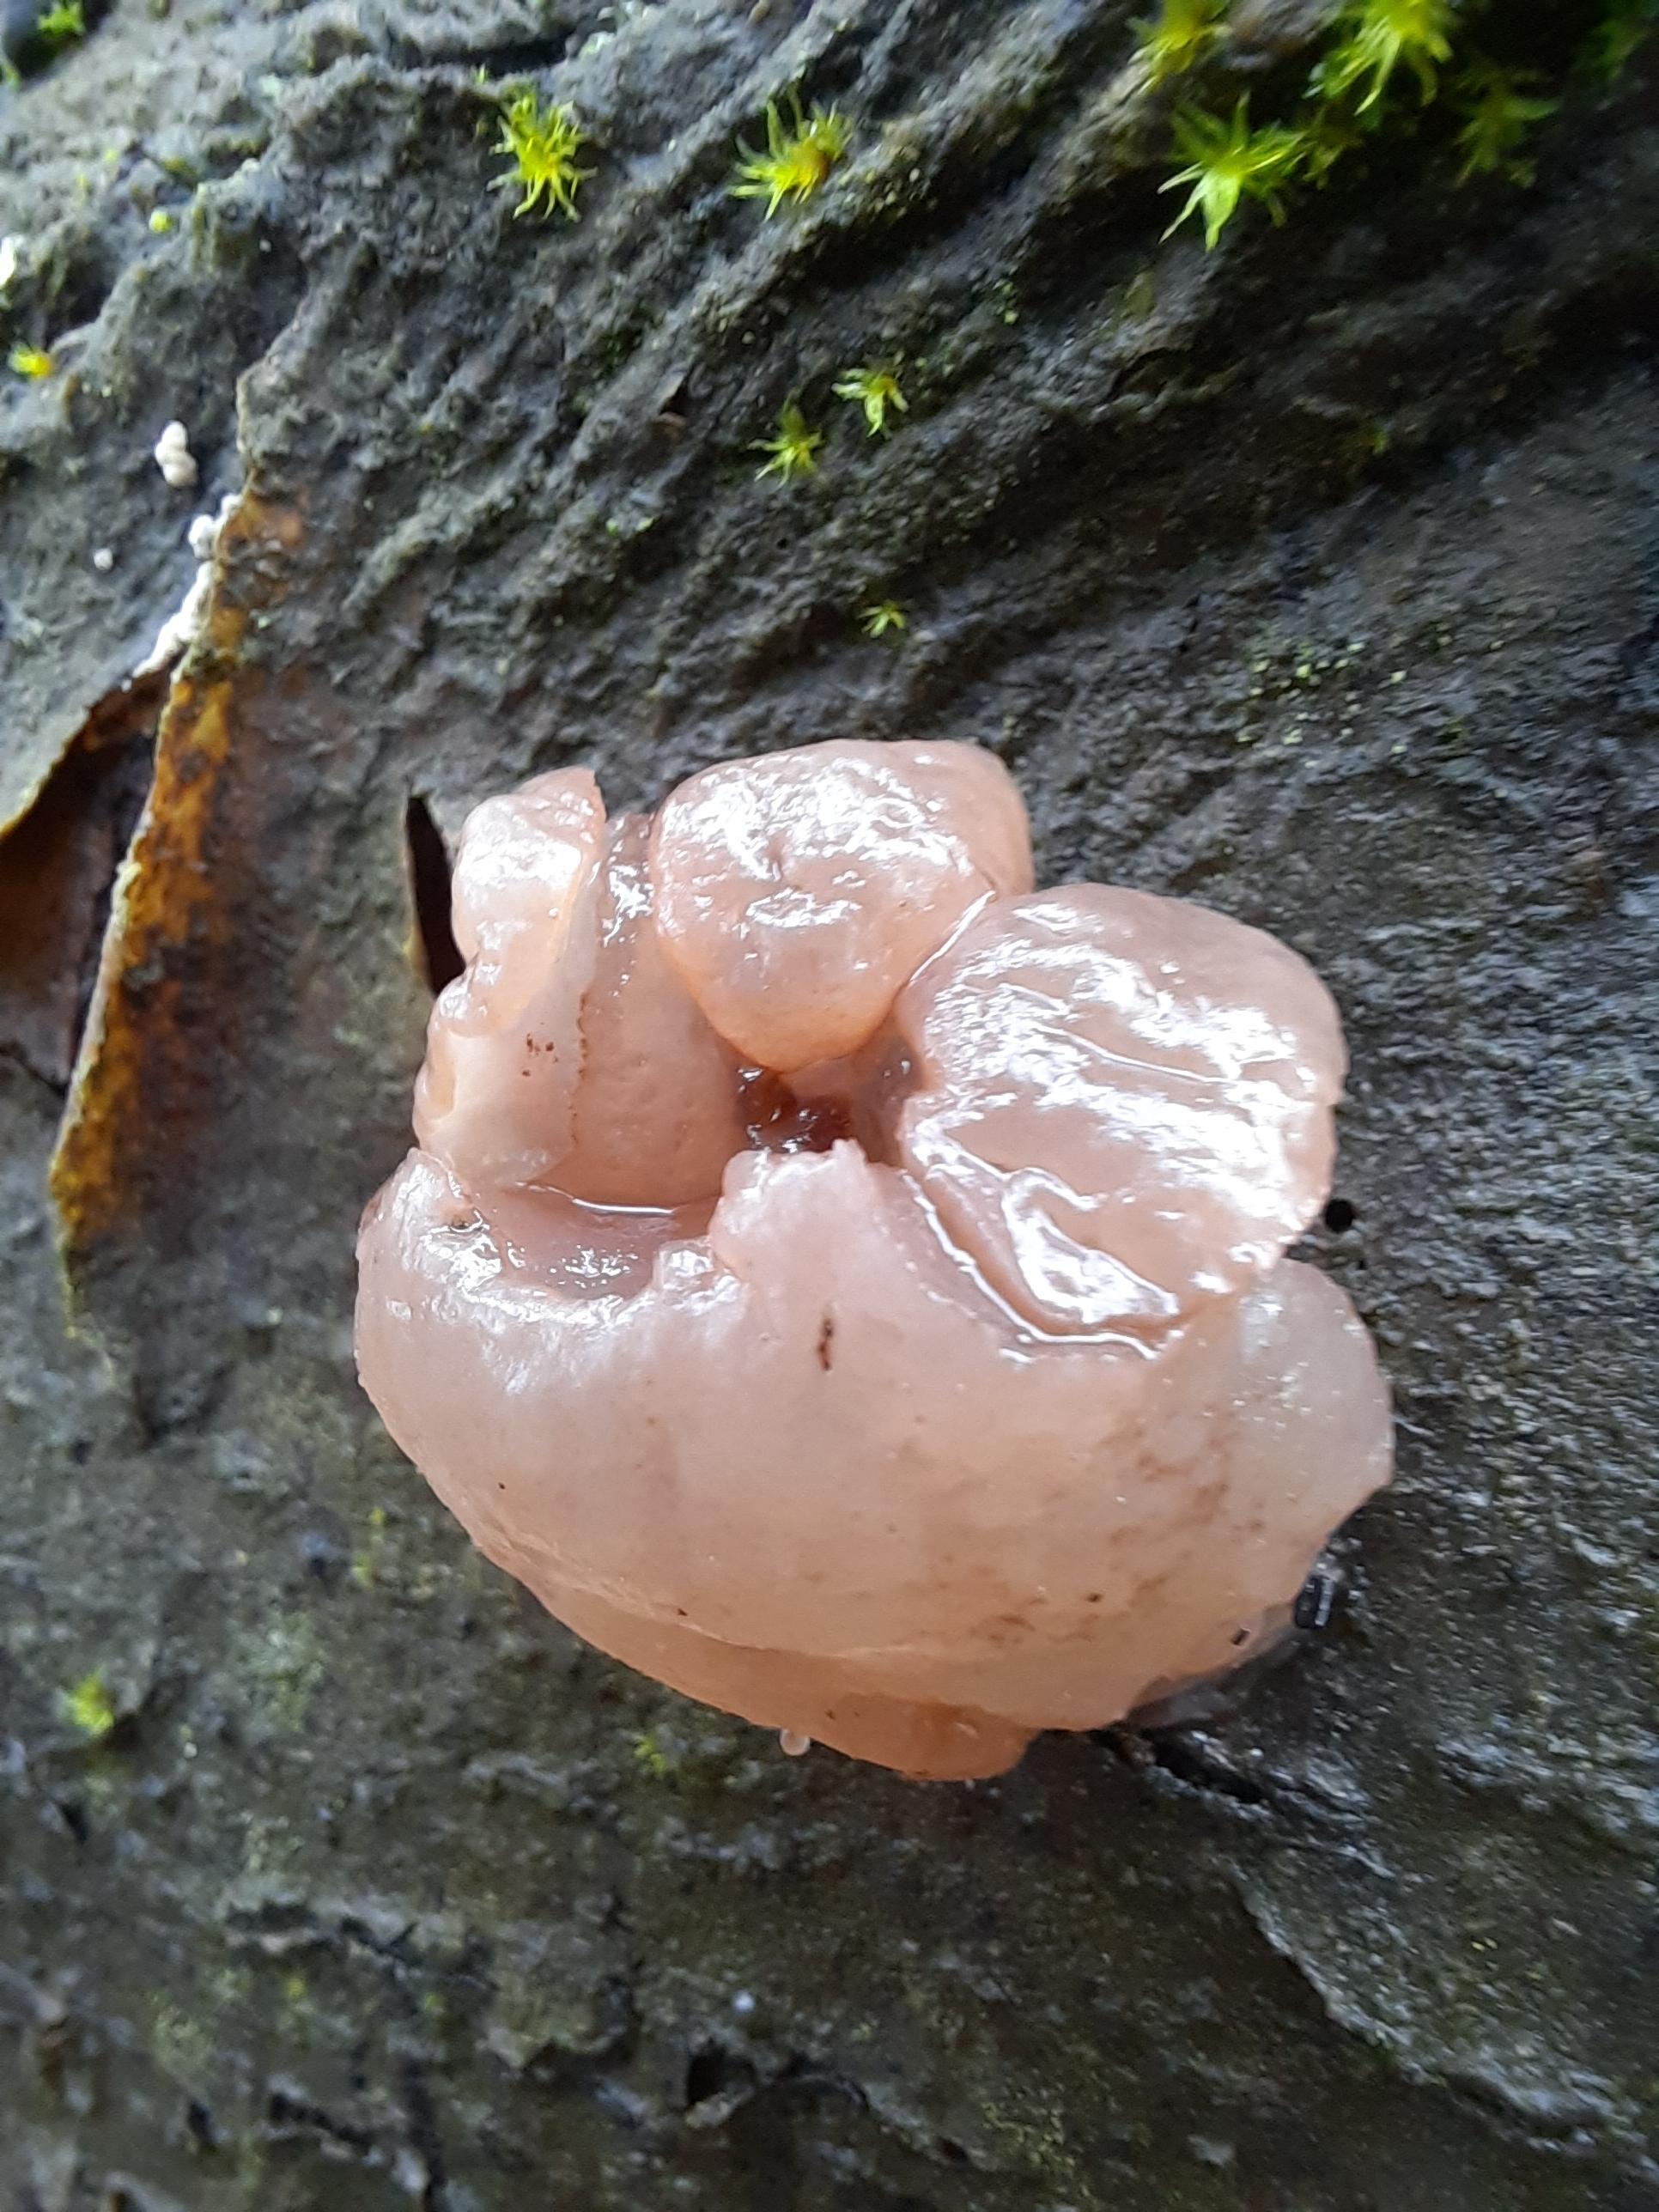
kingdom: Fungi
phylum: Ascomycota
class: Leotiomycetes
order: Helotiales
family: Gelatinodiscaceae
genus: Neobulgaria
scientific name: Neobulgaria pura
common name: bleg bævreskive
